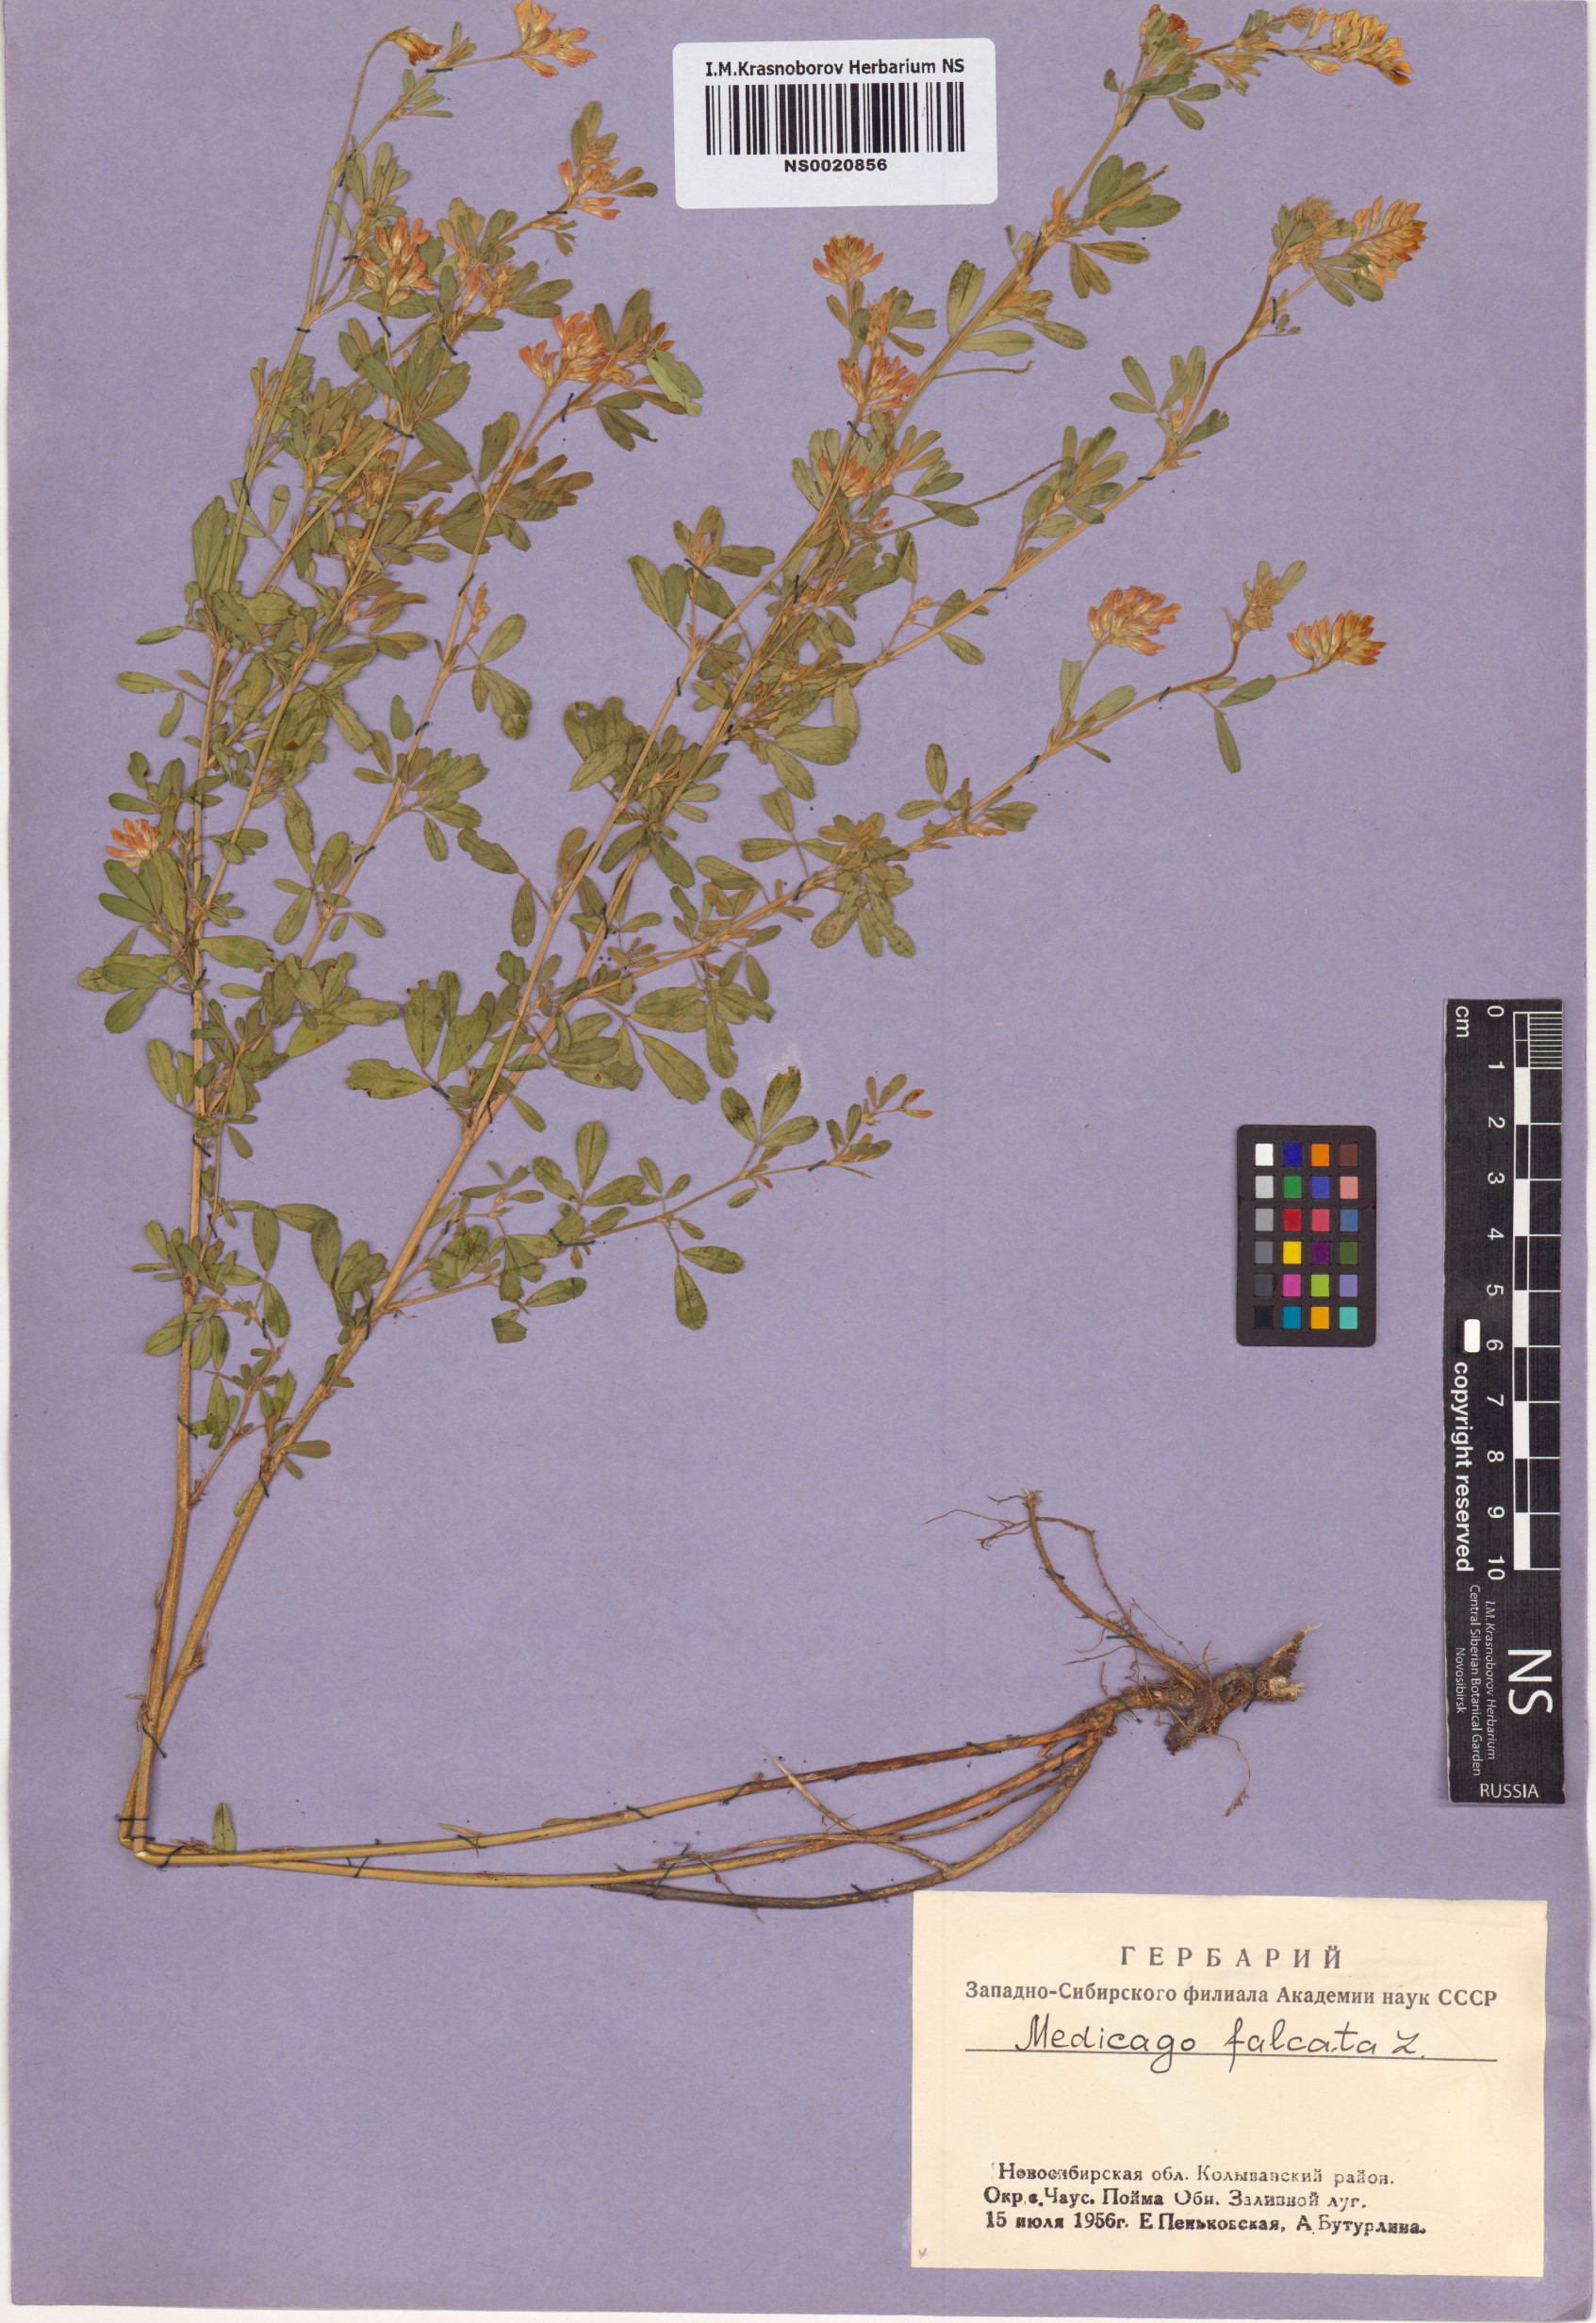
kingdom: Plantae
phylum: Tracheophyta
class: Magnoliopsida
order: Fabales
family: Fabaceae
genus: Medicago
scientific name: Medicago falcata
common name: Sickle medick
